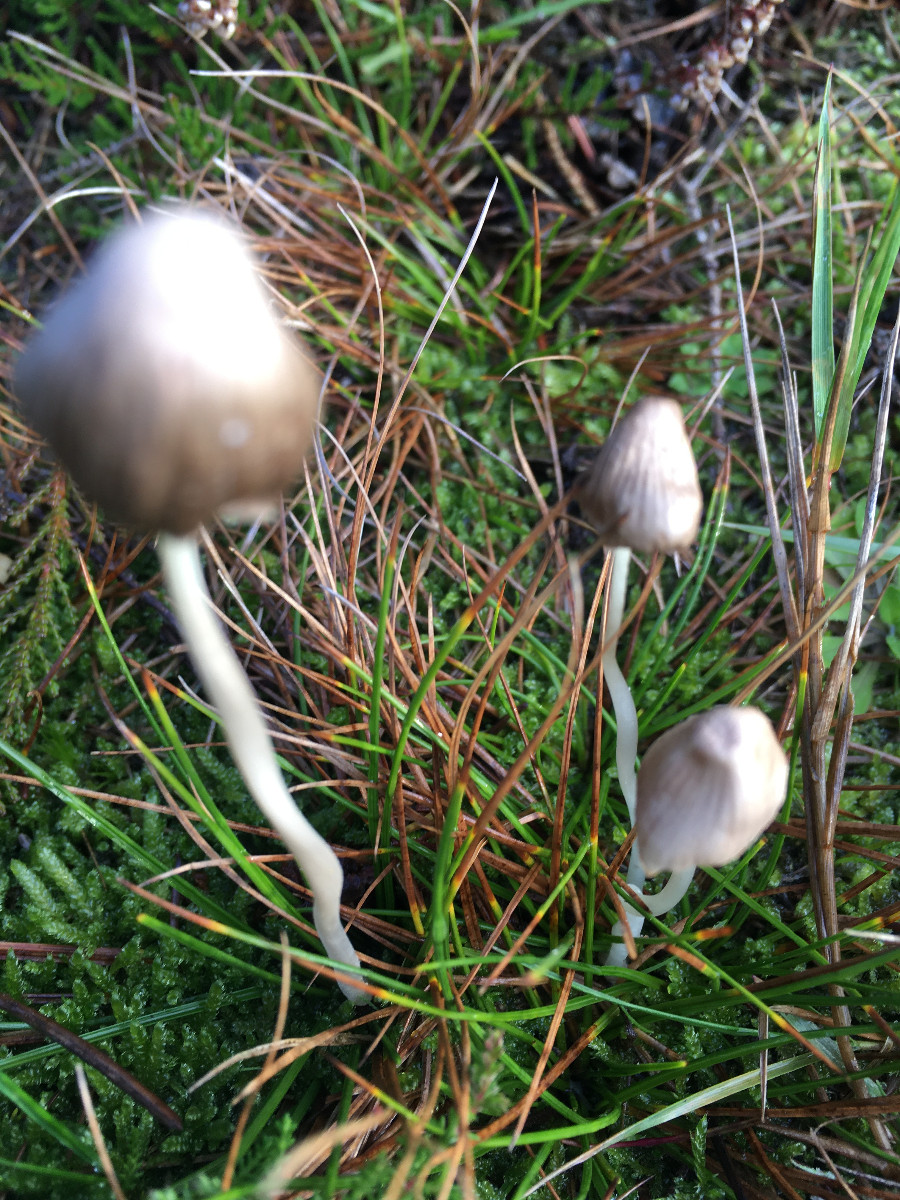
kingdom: Fungi
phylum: Basidiomycota
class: Agaricomycetes
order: Agaricales
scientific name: Agaricales
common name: champignonordenen
